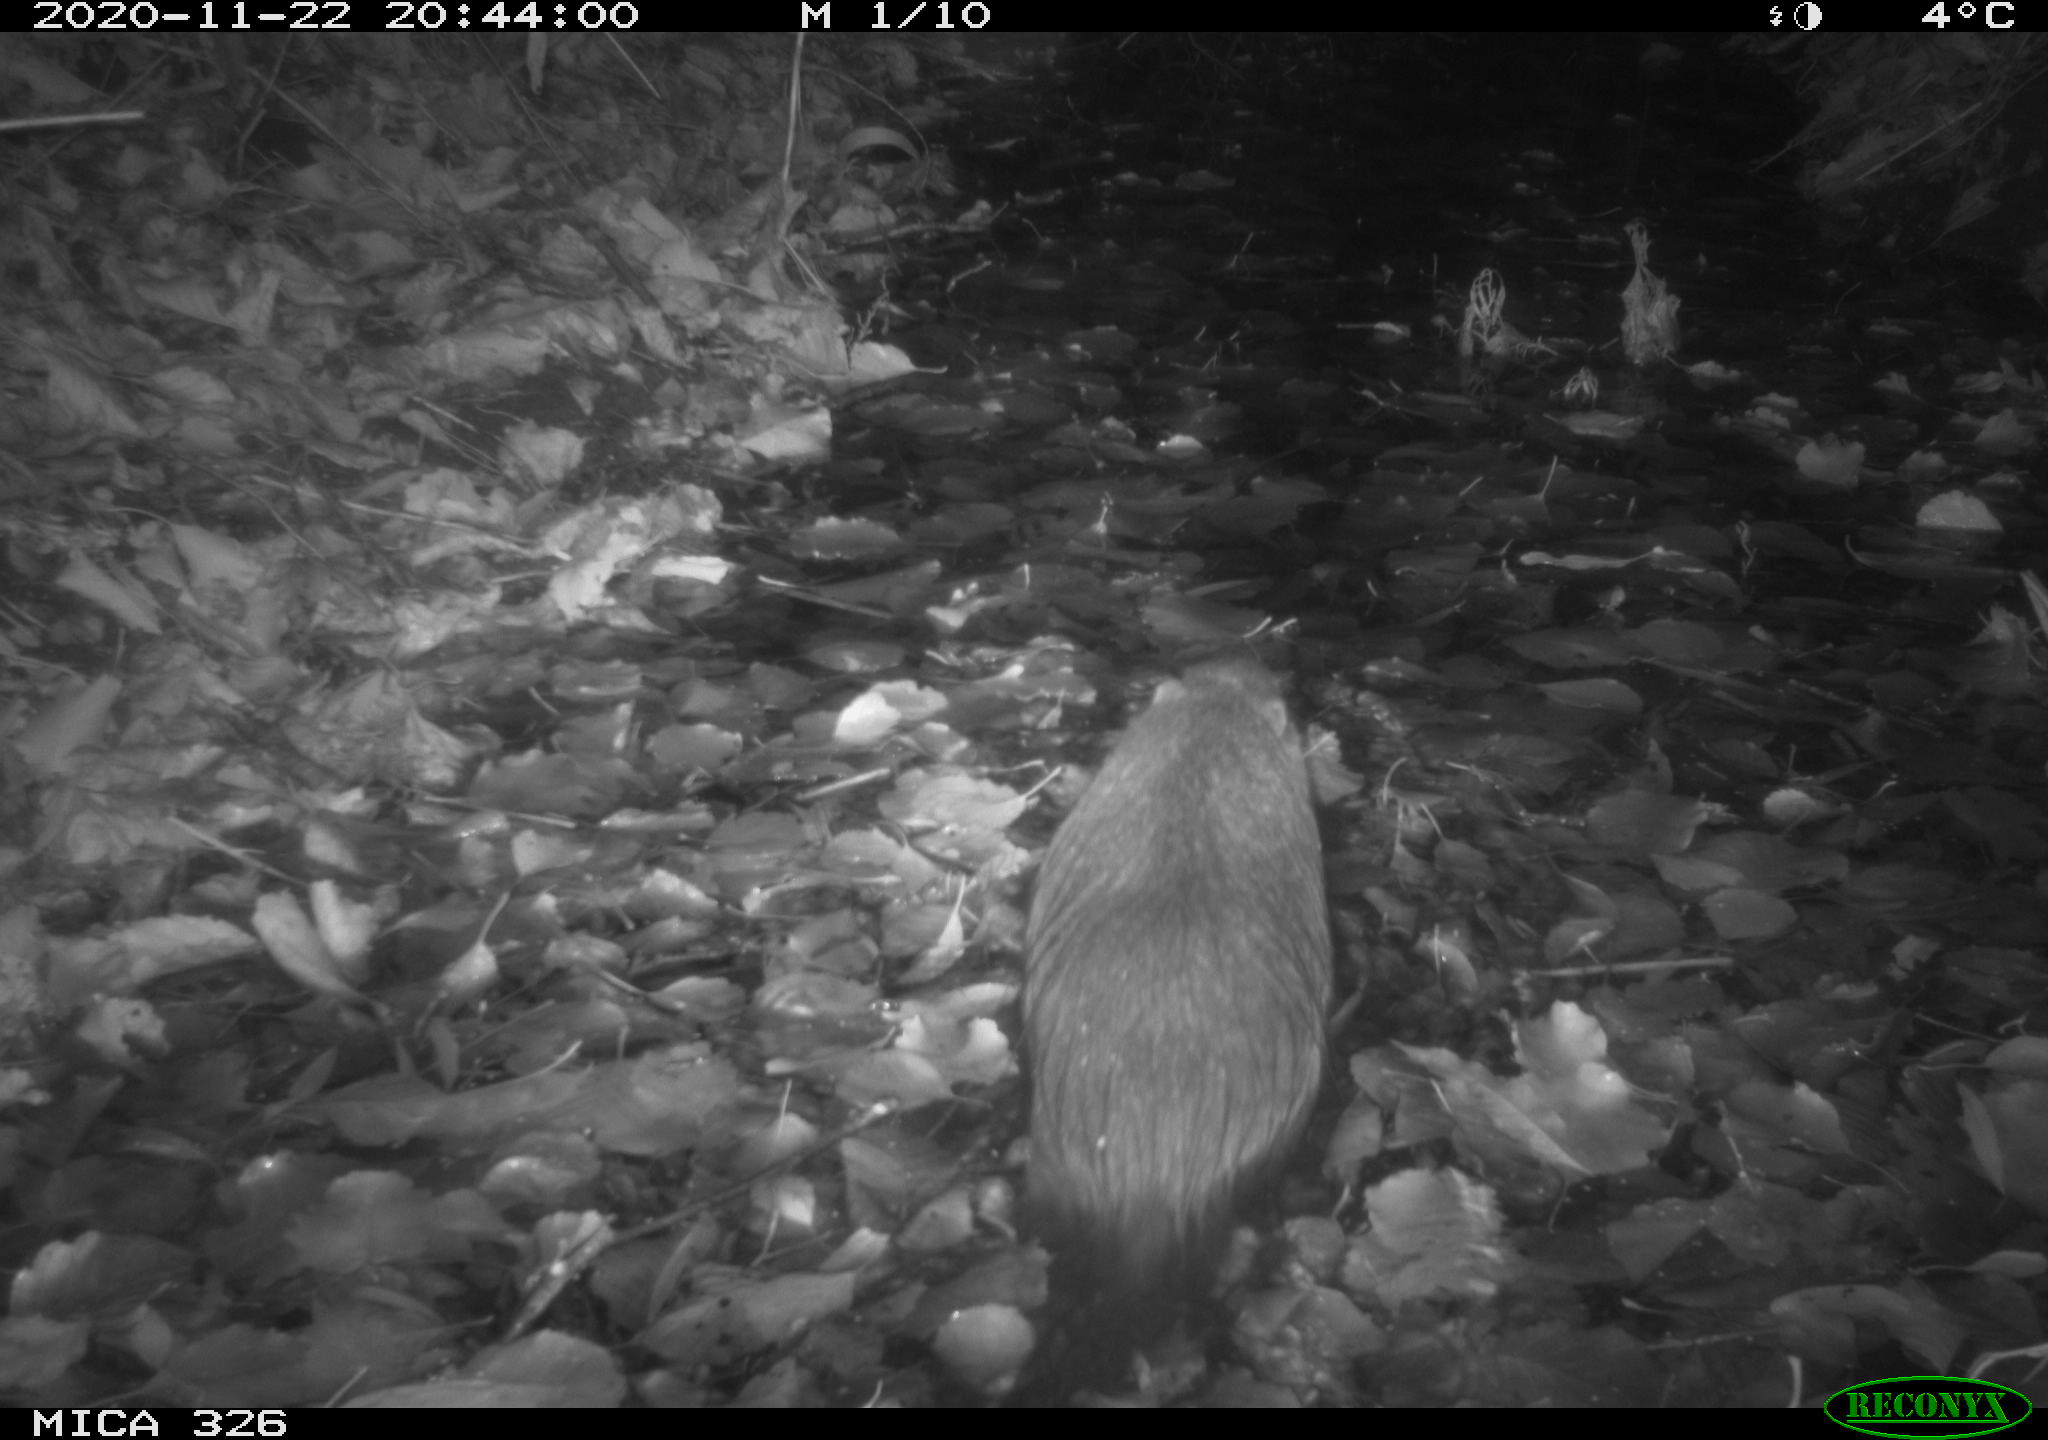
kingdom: Animalia
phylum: Chordata
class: Mammalia
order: Rodentia
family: Myocastoridae
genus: Myocastor
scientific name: Myocastor coypus
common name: Coypu
